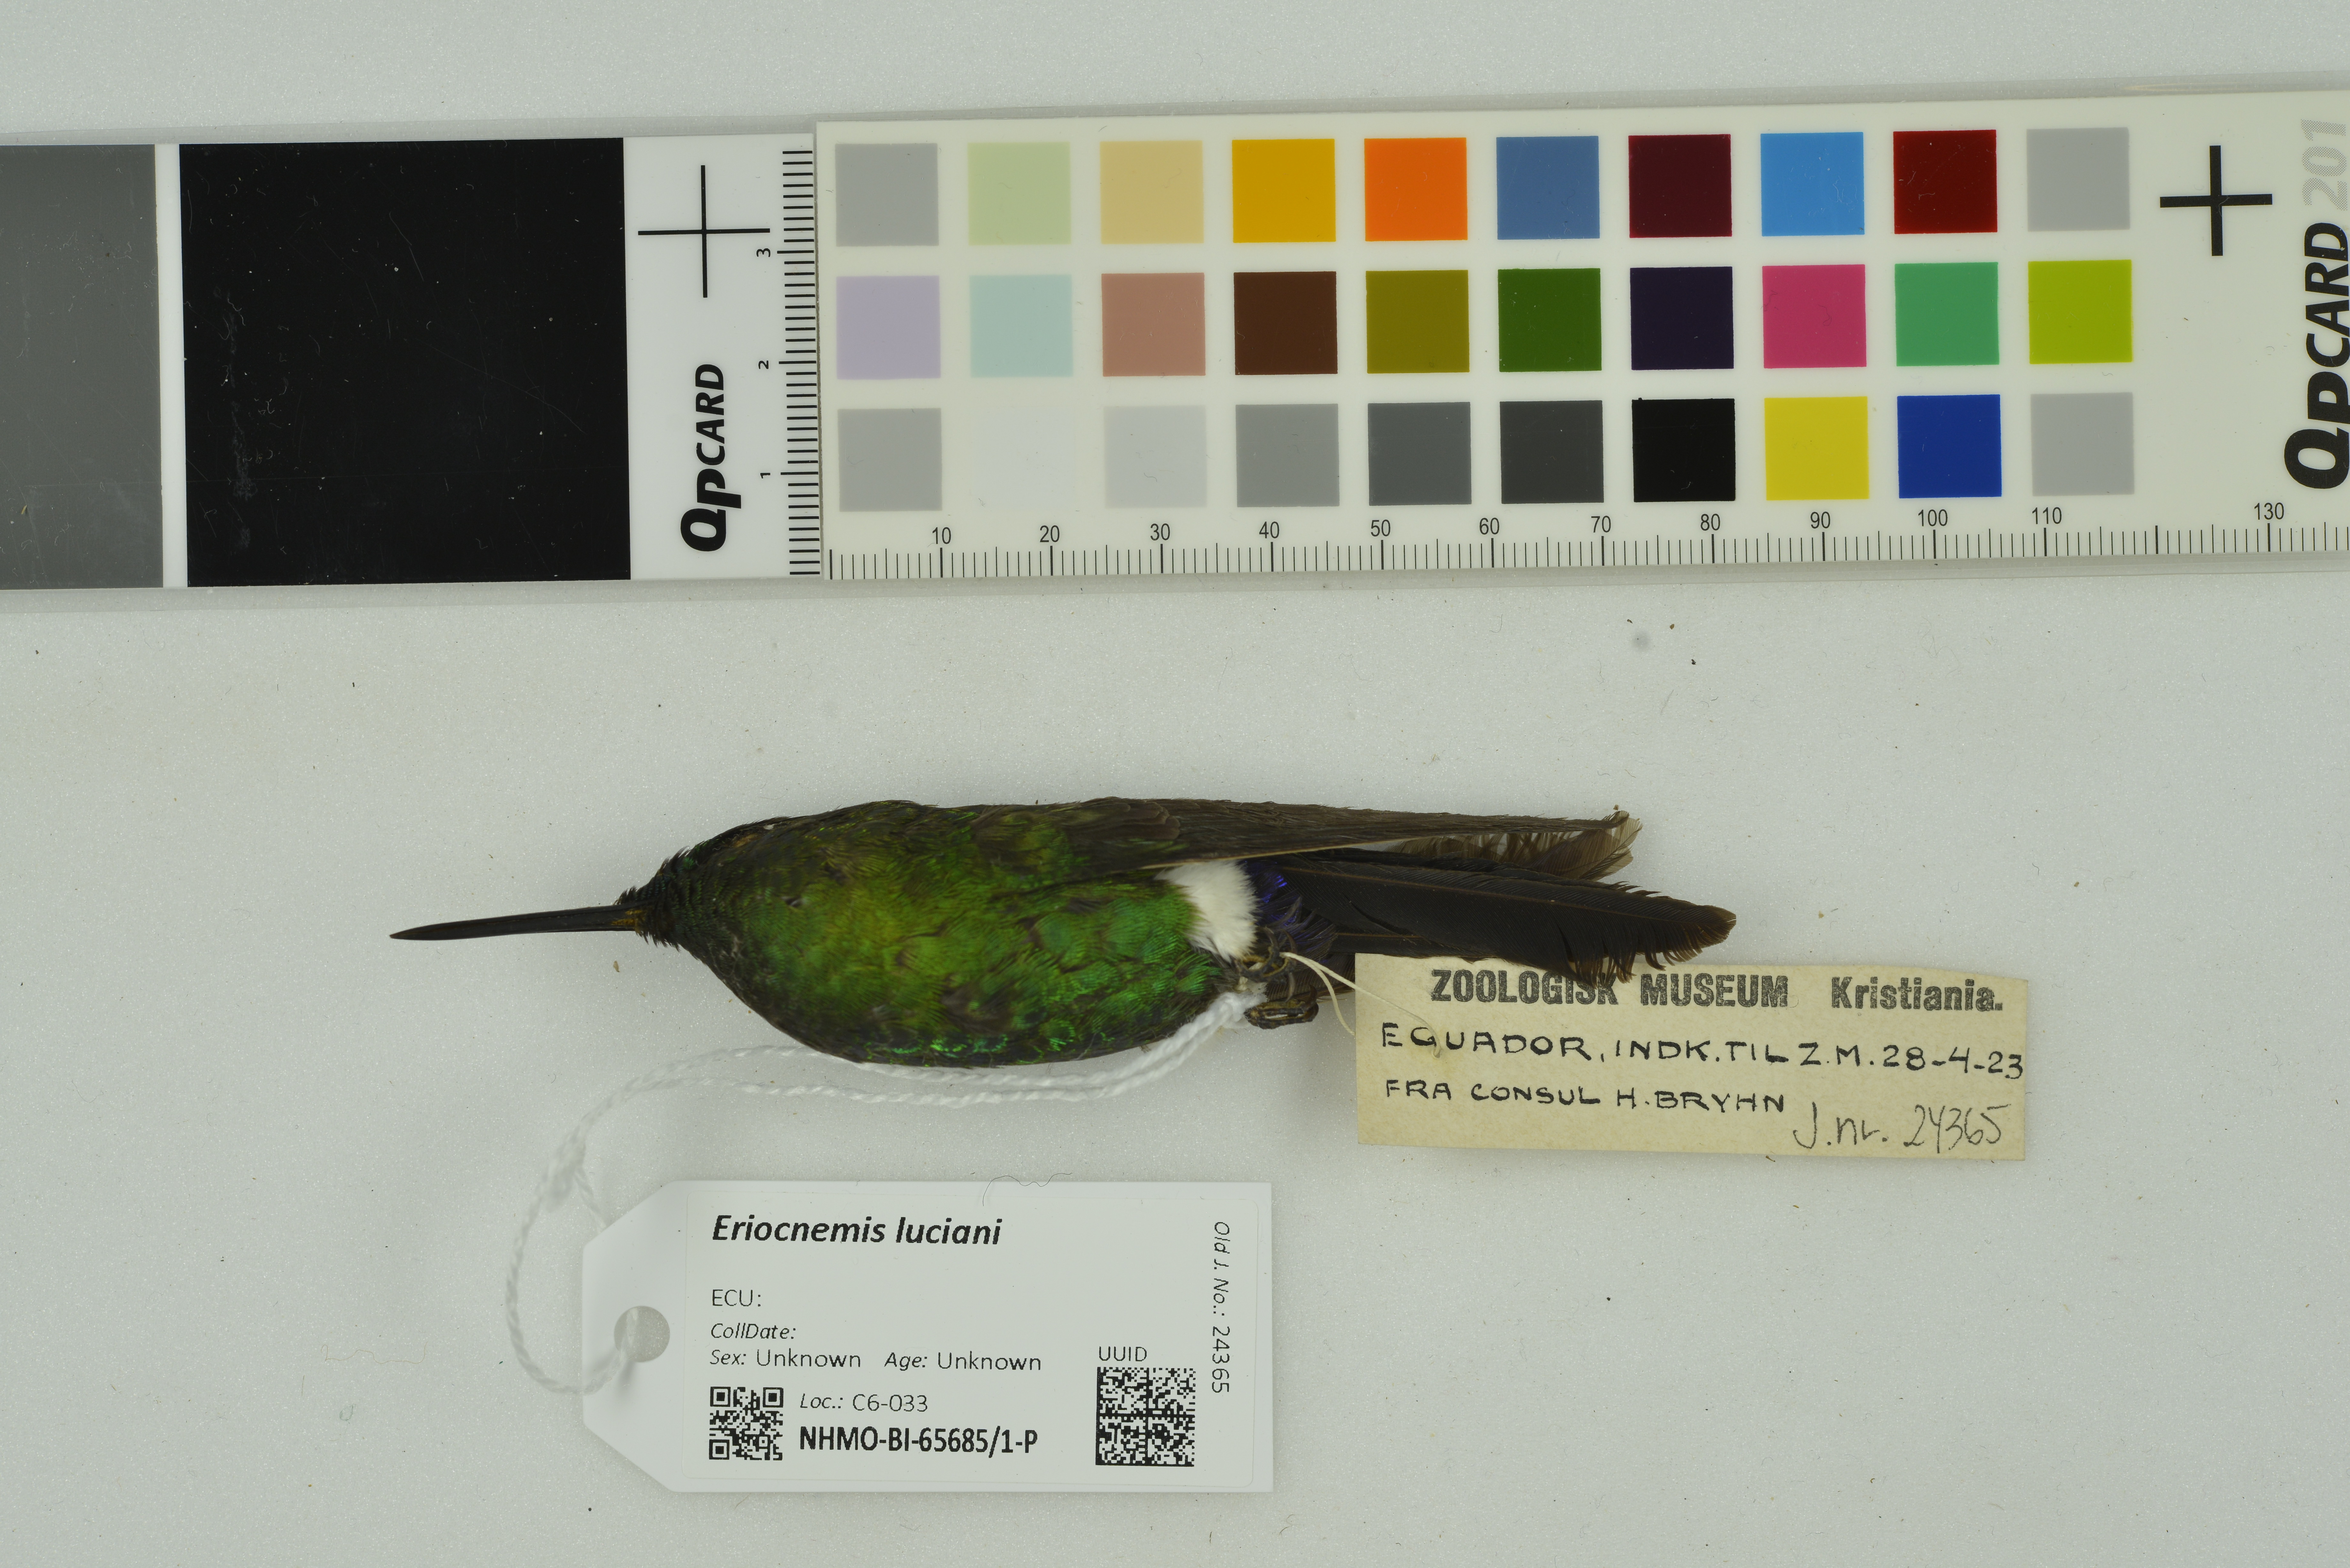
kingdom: Animalia
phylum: Chordata
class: Aves
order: Apodiformes
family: Trochilidae
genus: Eriocnemis
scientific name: Eriocnemis luciani
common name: Sapphire-vented puffleg
